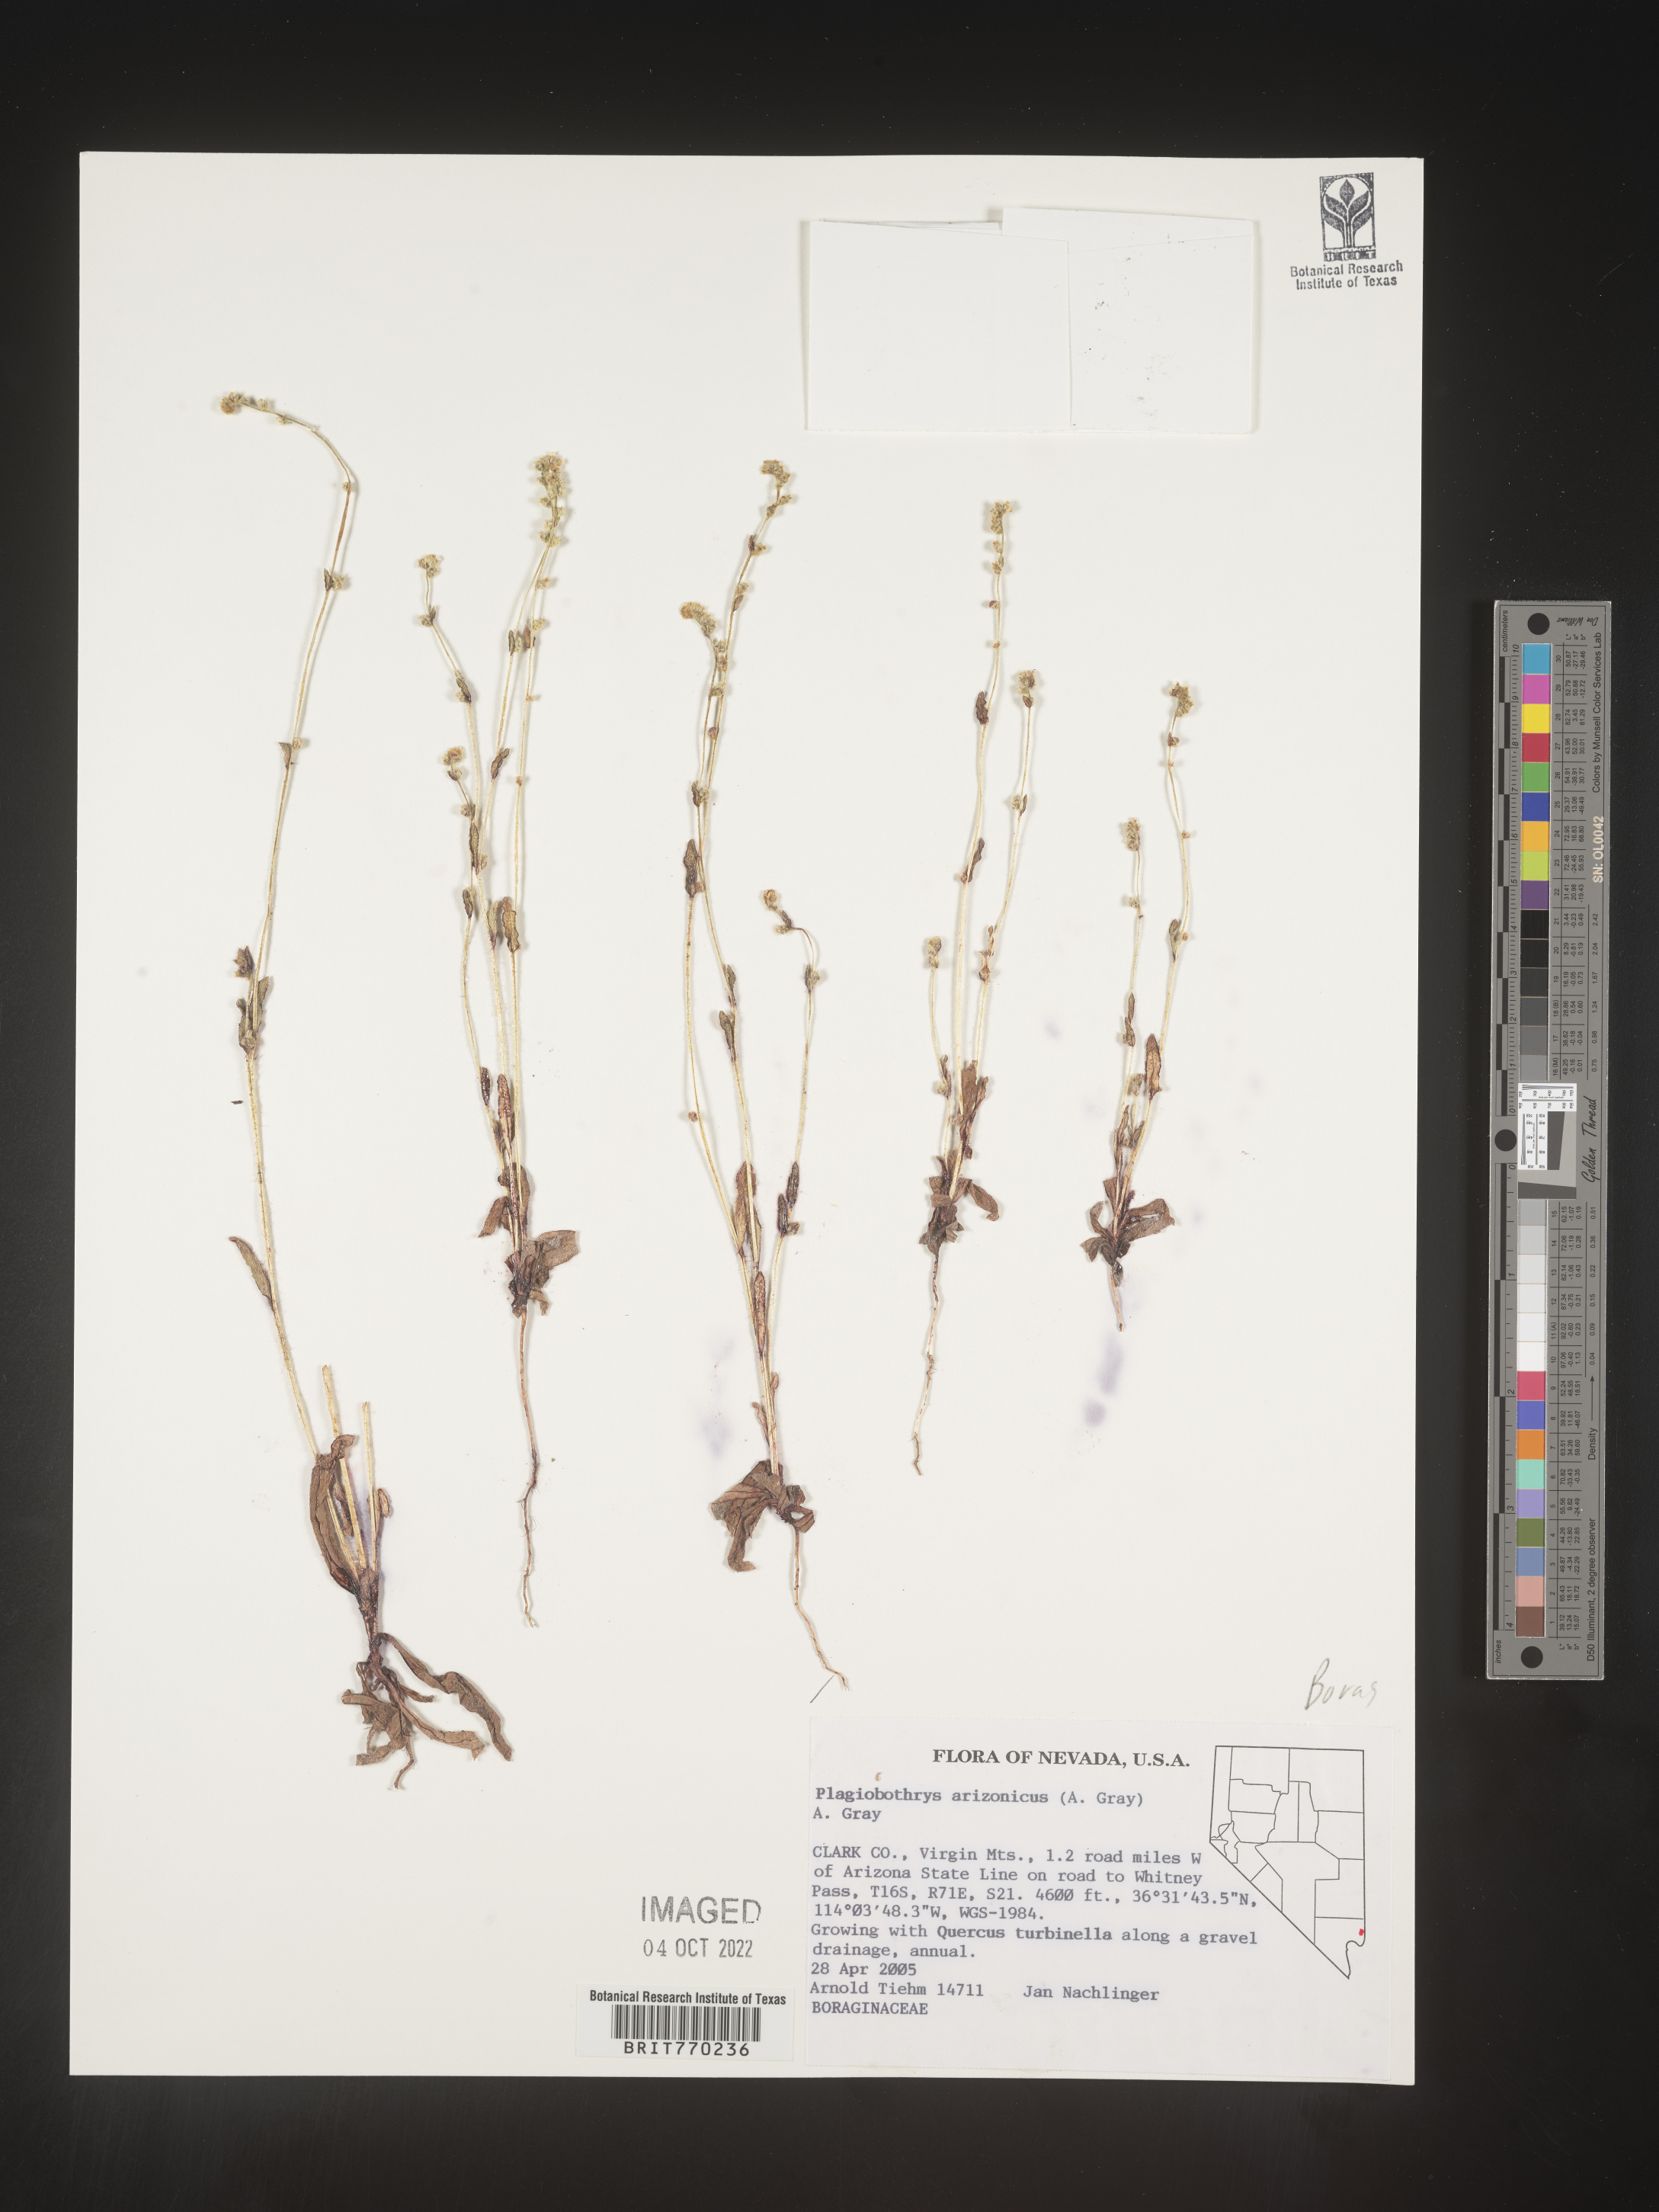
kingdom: Plantae
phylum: Tracheophyta
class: Magnoliopsida
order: Boraginales
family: Boraginaceae
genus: Plagiobothrys
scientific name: Plagiobothrys
